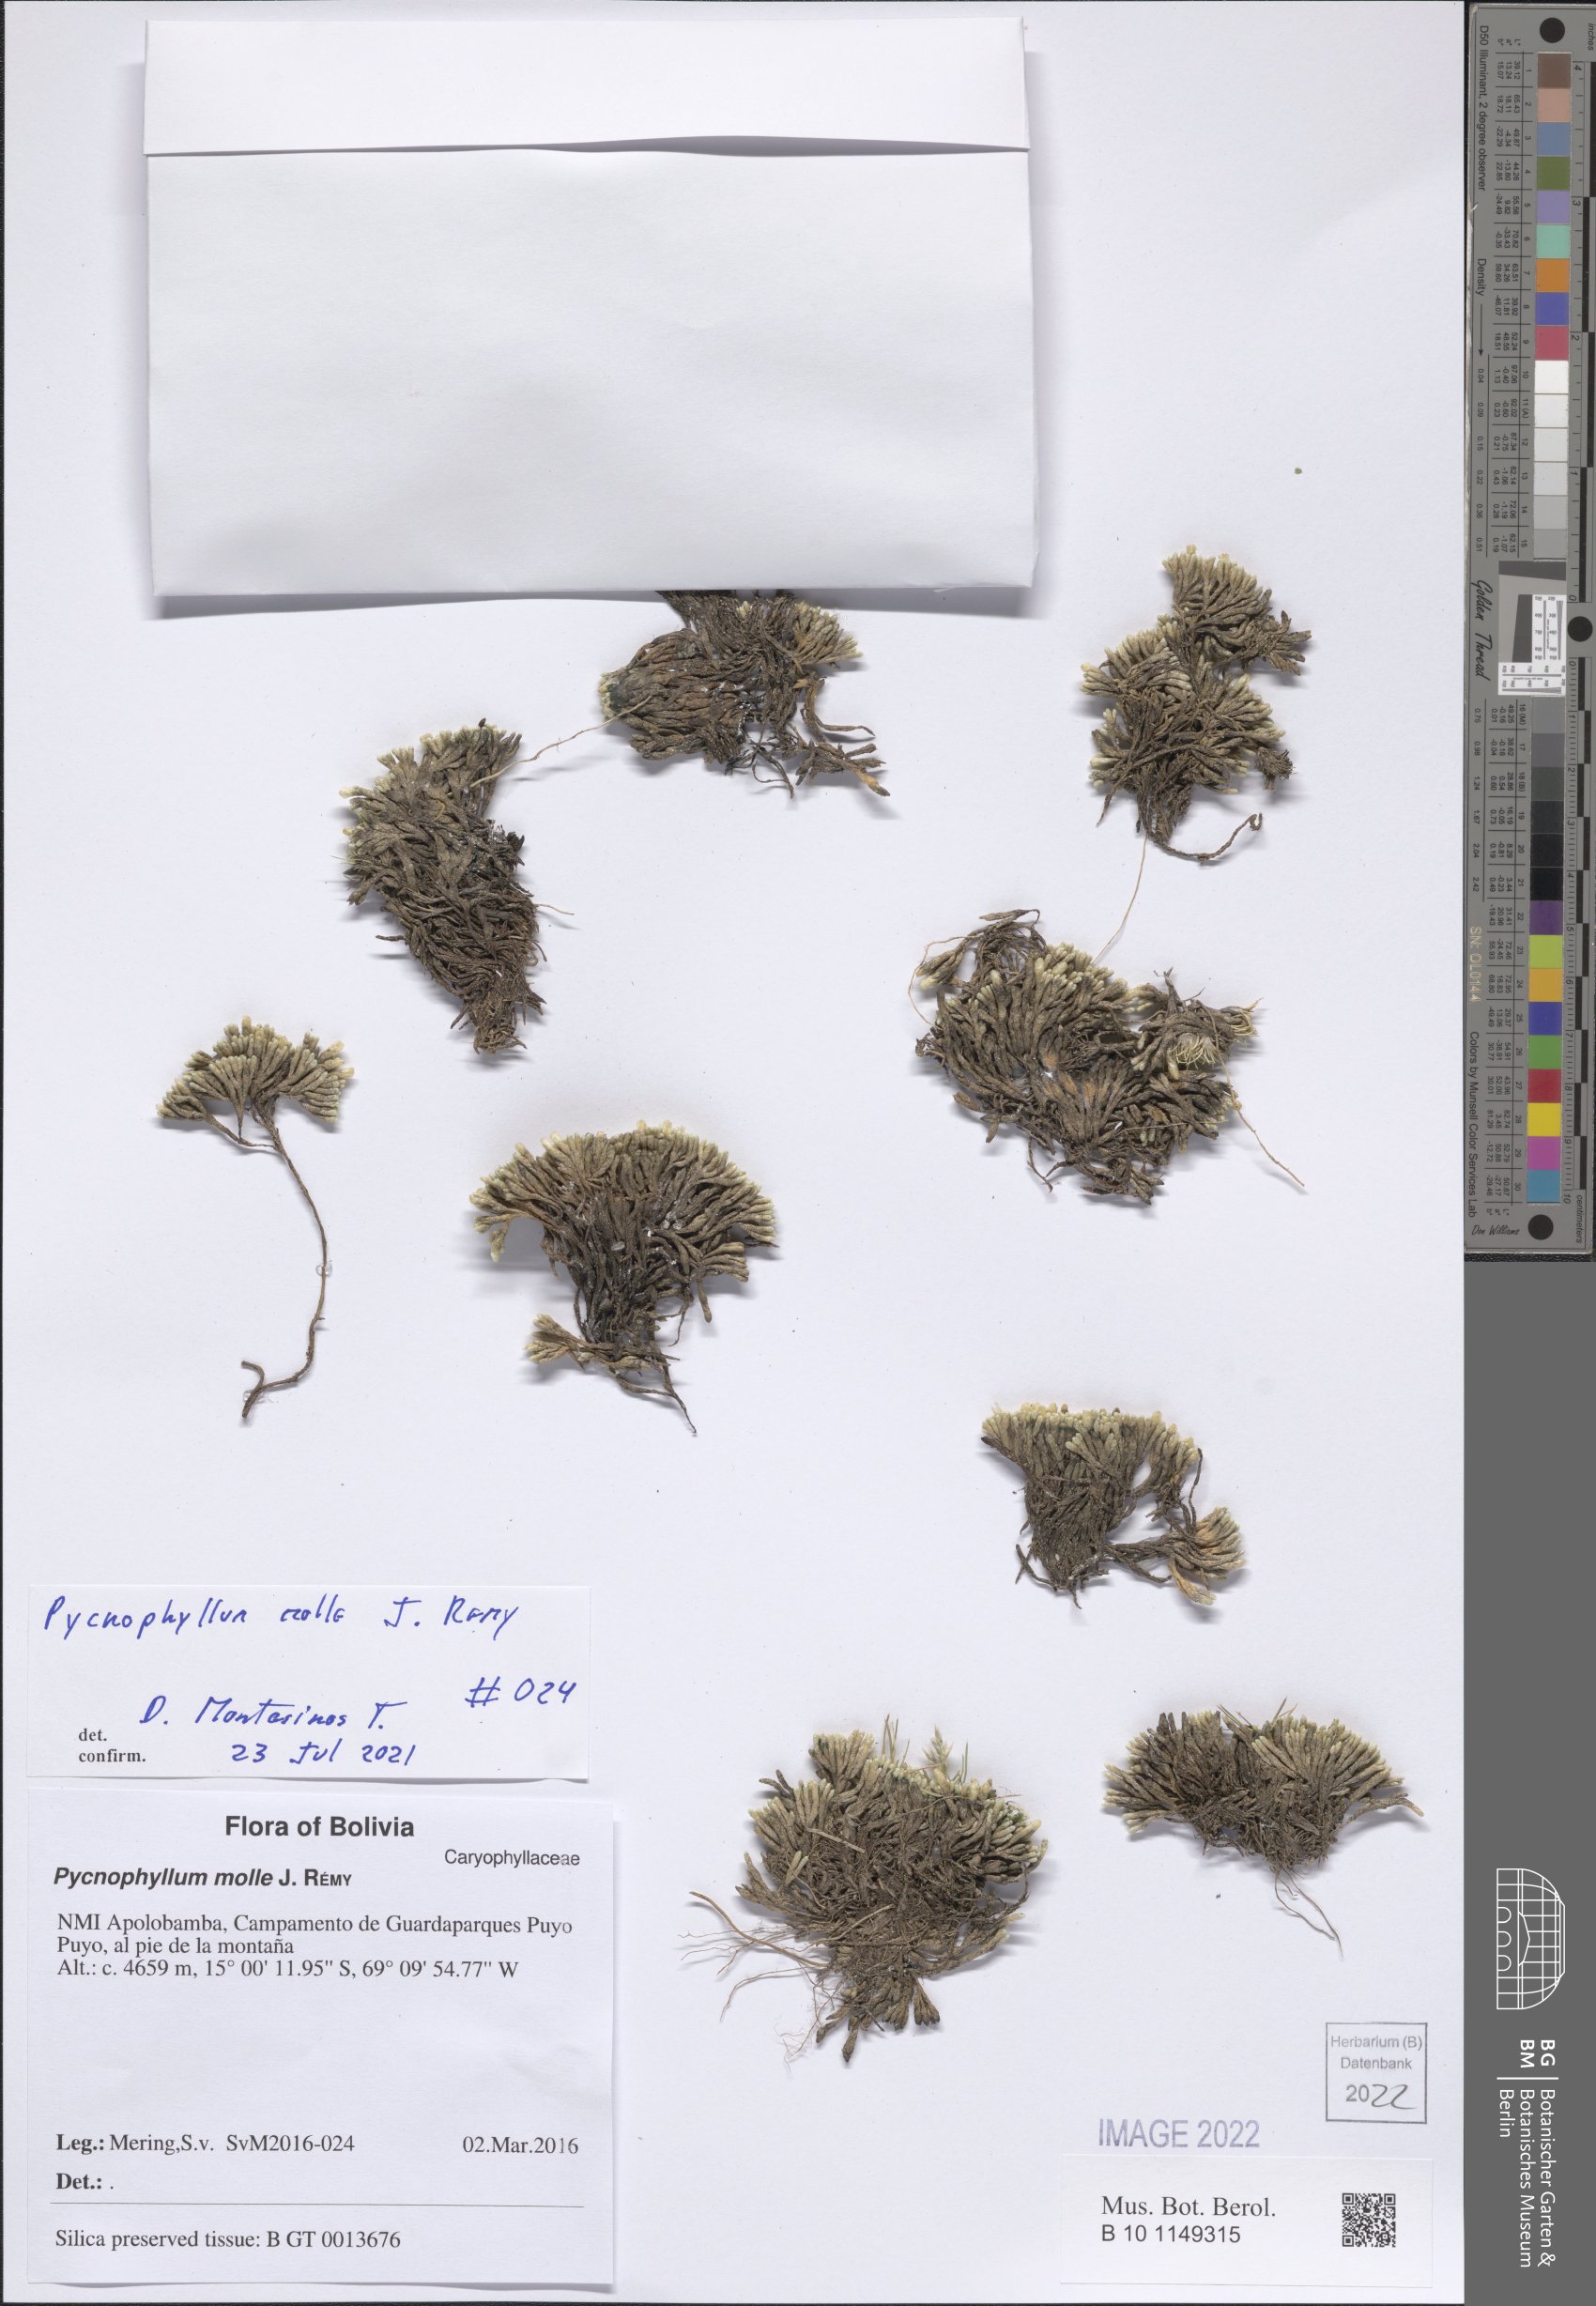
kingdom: Plantae
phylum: Tracheophyta
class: Magnoliopsida
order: Caryophyllales
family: Caryophyllaceae
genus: Pycnophyllum
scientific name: Pycnophyllum molle
